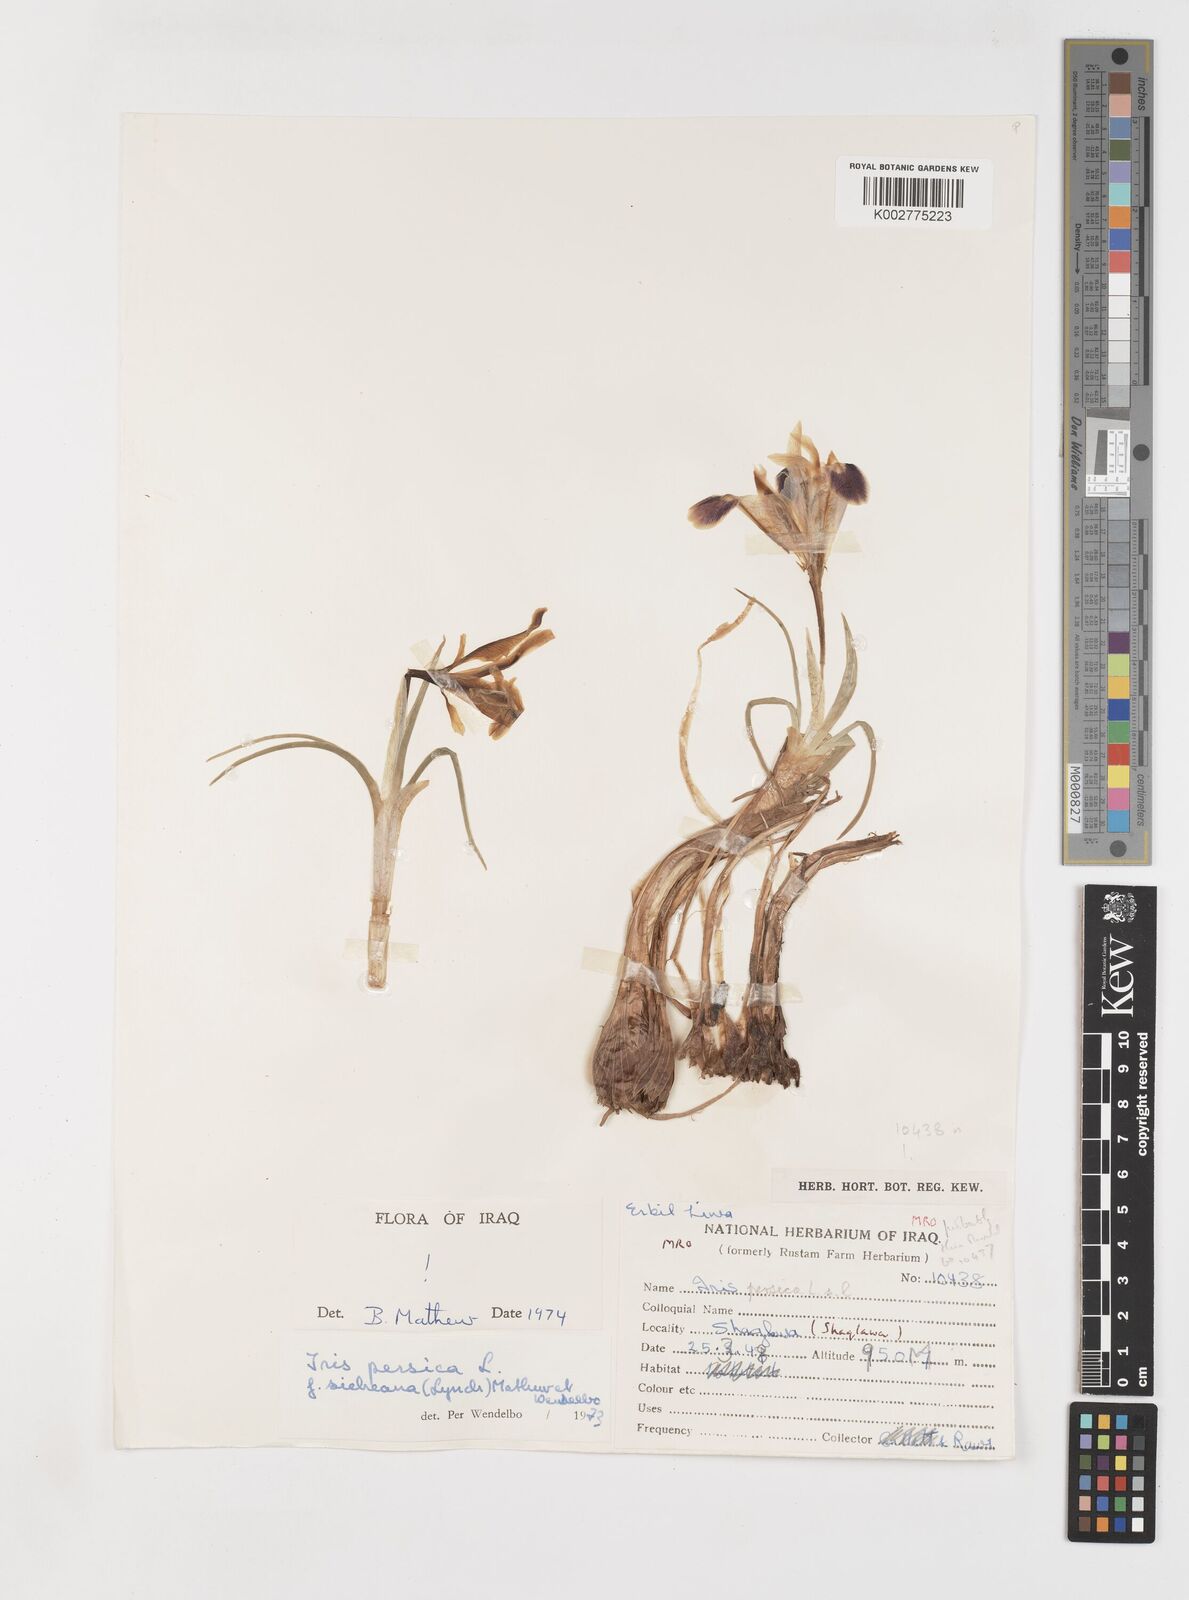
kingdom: Plantae
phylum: Tracheophyta
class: Liliopsida
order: Asparagales
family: Iridaceae
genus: Iris
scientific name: Iris persica
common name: Persian iris
